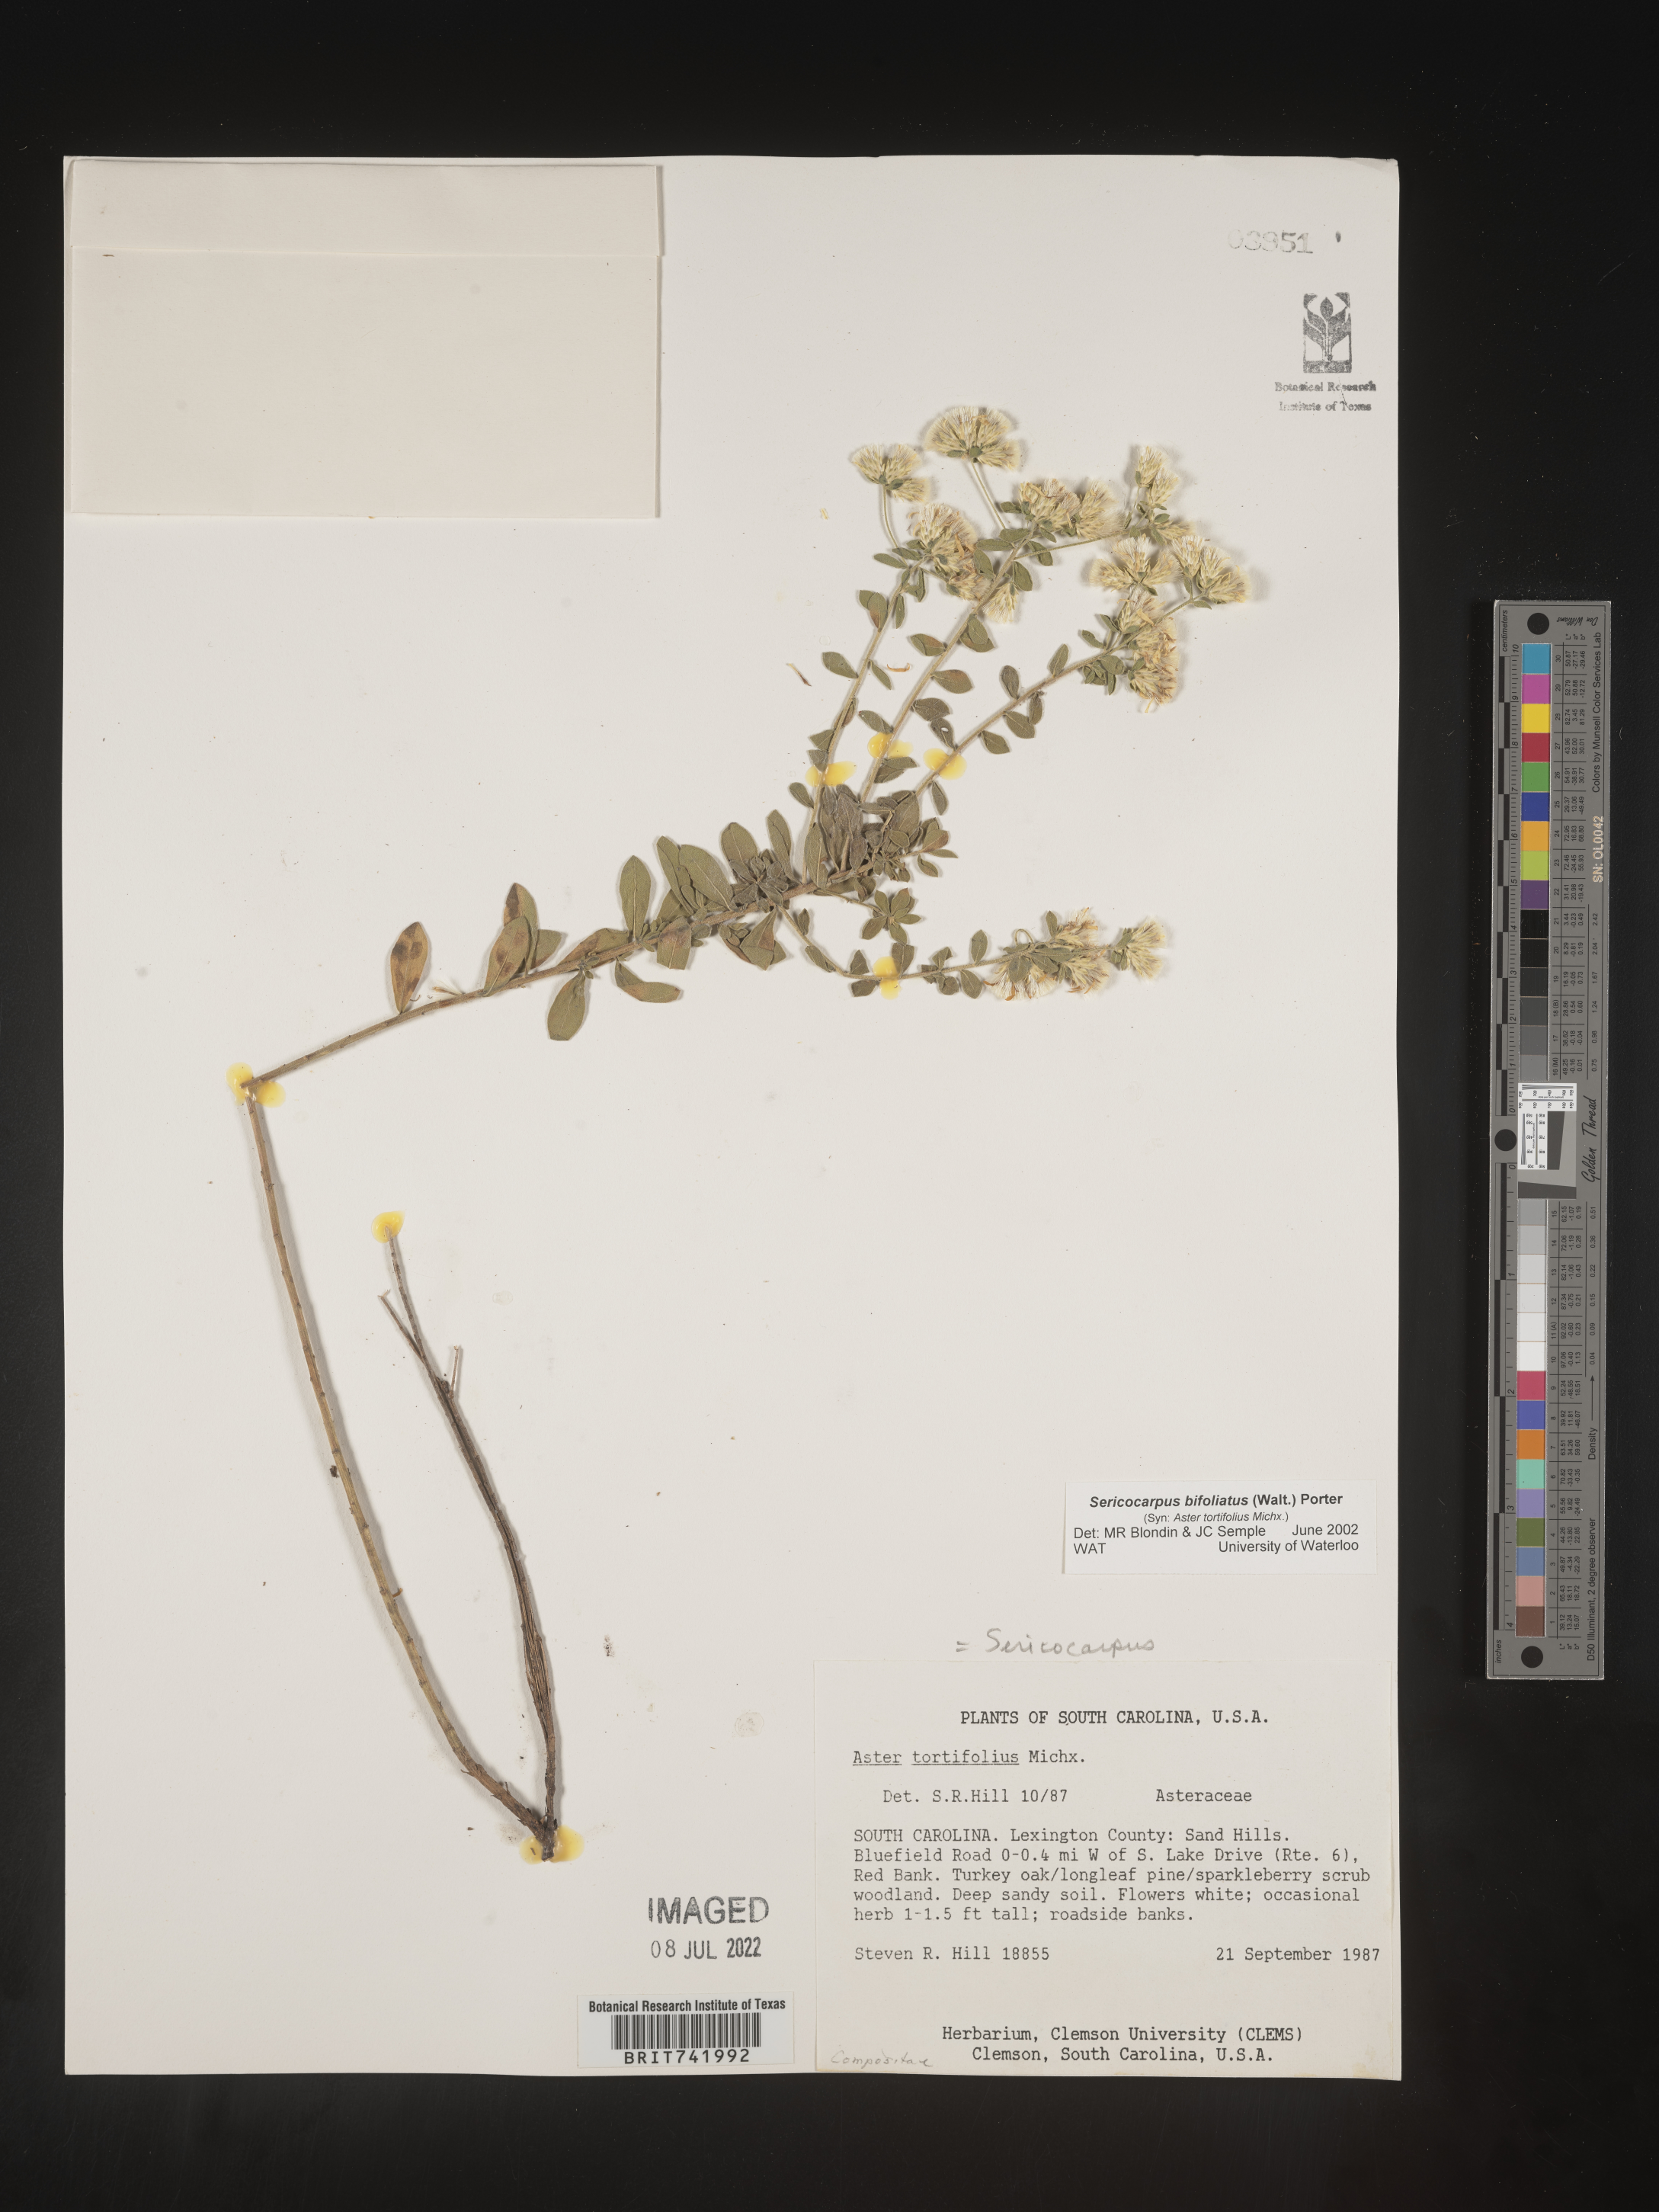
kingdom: Plantae
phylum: Tracheophyta
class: Magnoliopsida
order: Asterales
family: Asteraceae
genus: Sericocarpus
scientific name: Sericocarpus tortifolius
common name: Dixie aster
